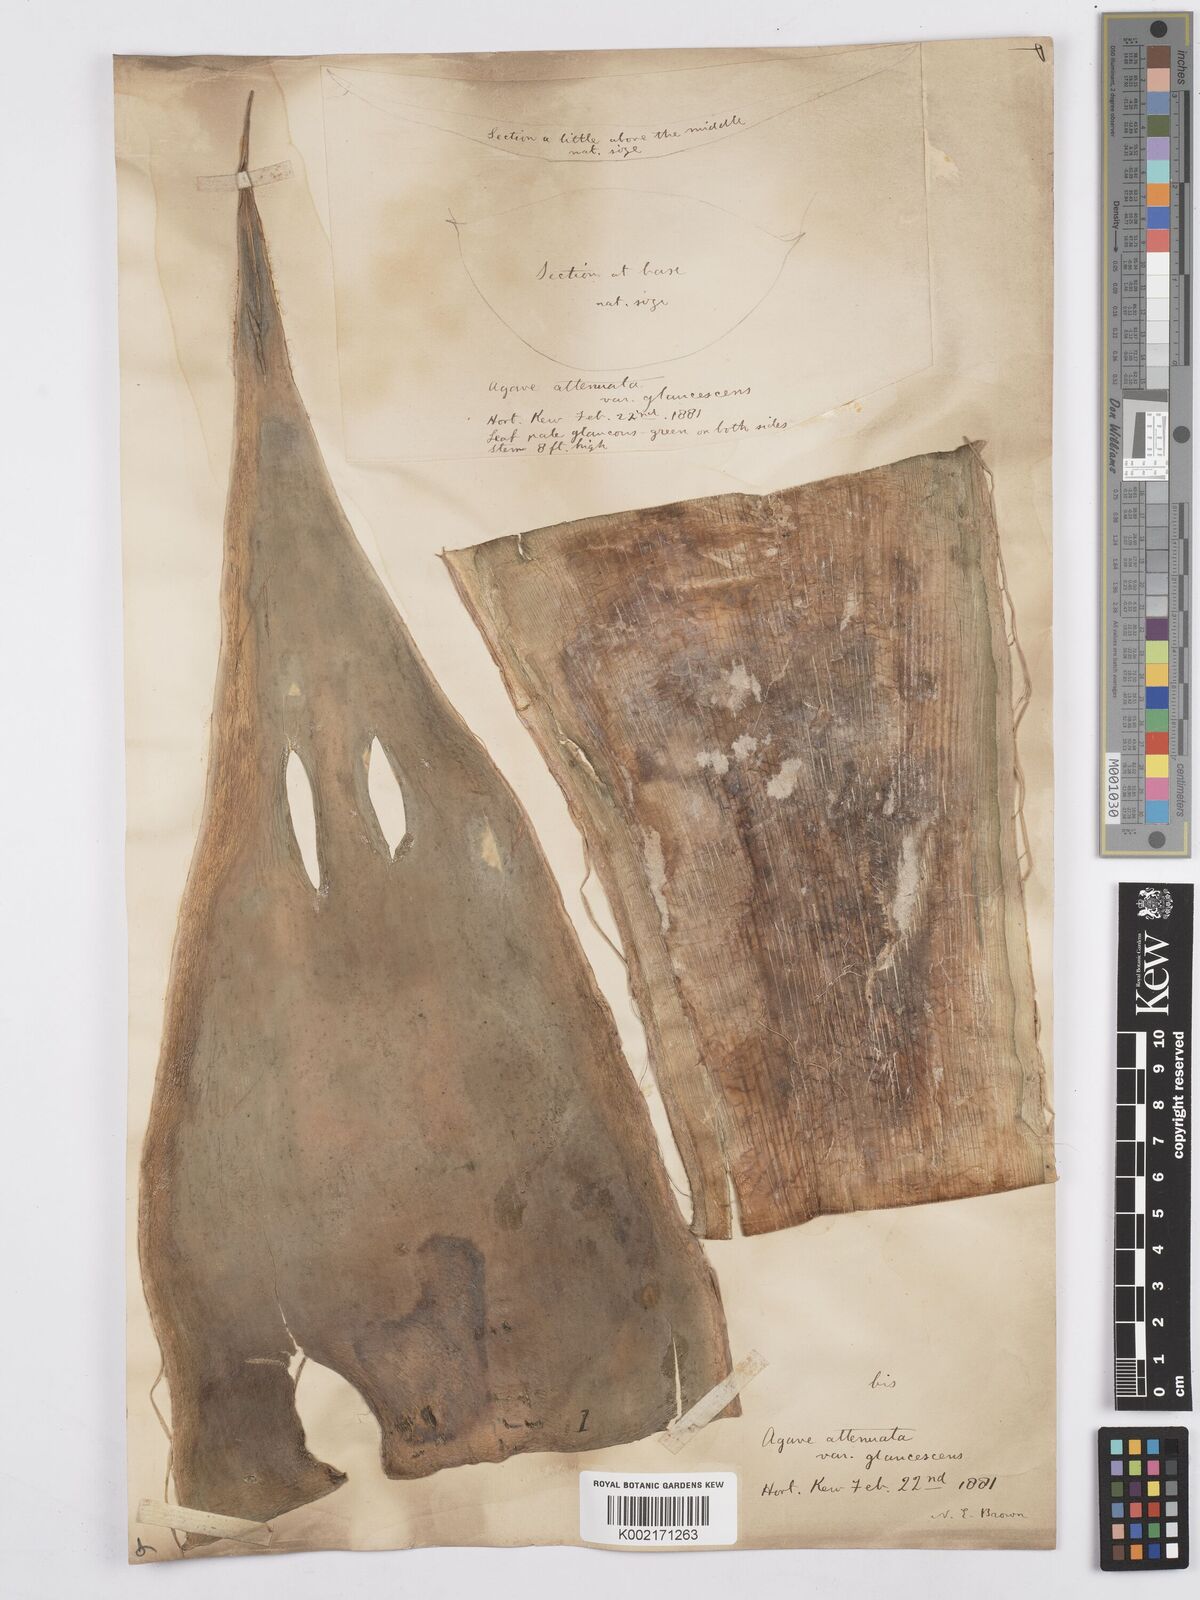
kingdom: Plantae
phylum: Tracheophyta
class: Liliopsida
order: Asparagales
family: Asparagaceae
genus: Agave
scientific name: Agave attenuata
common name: Fox tail agave
